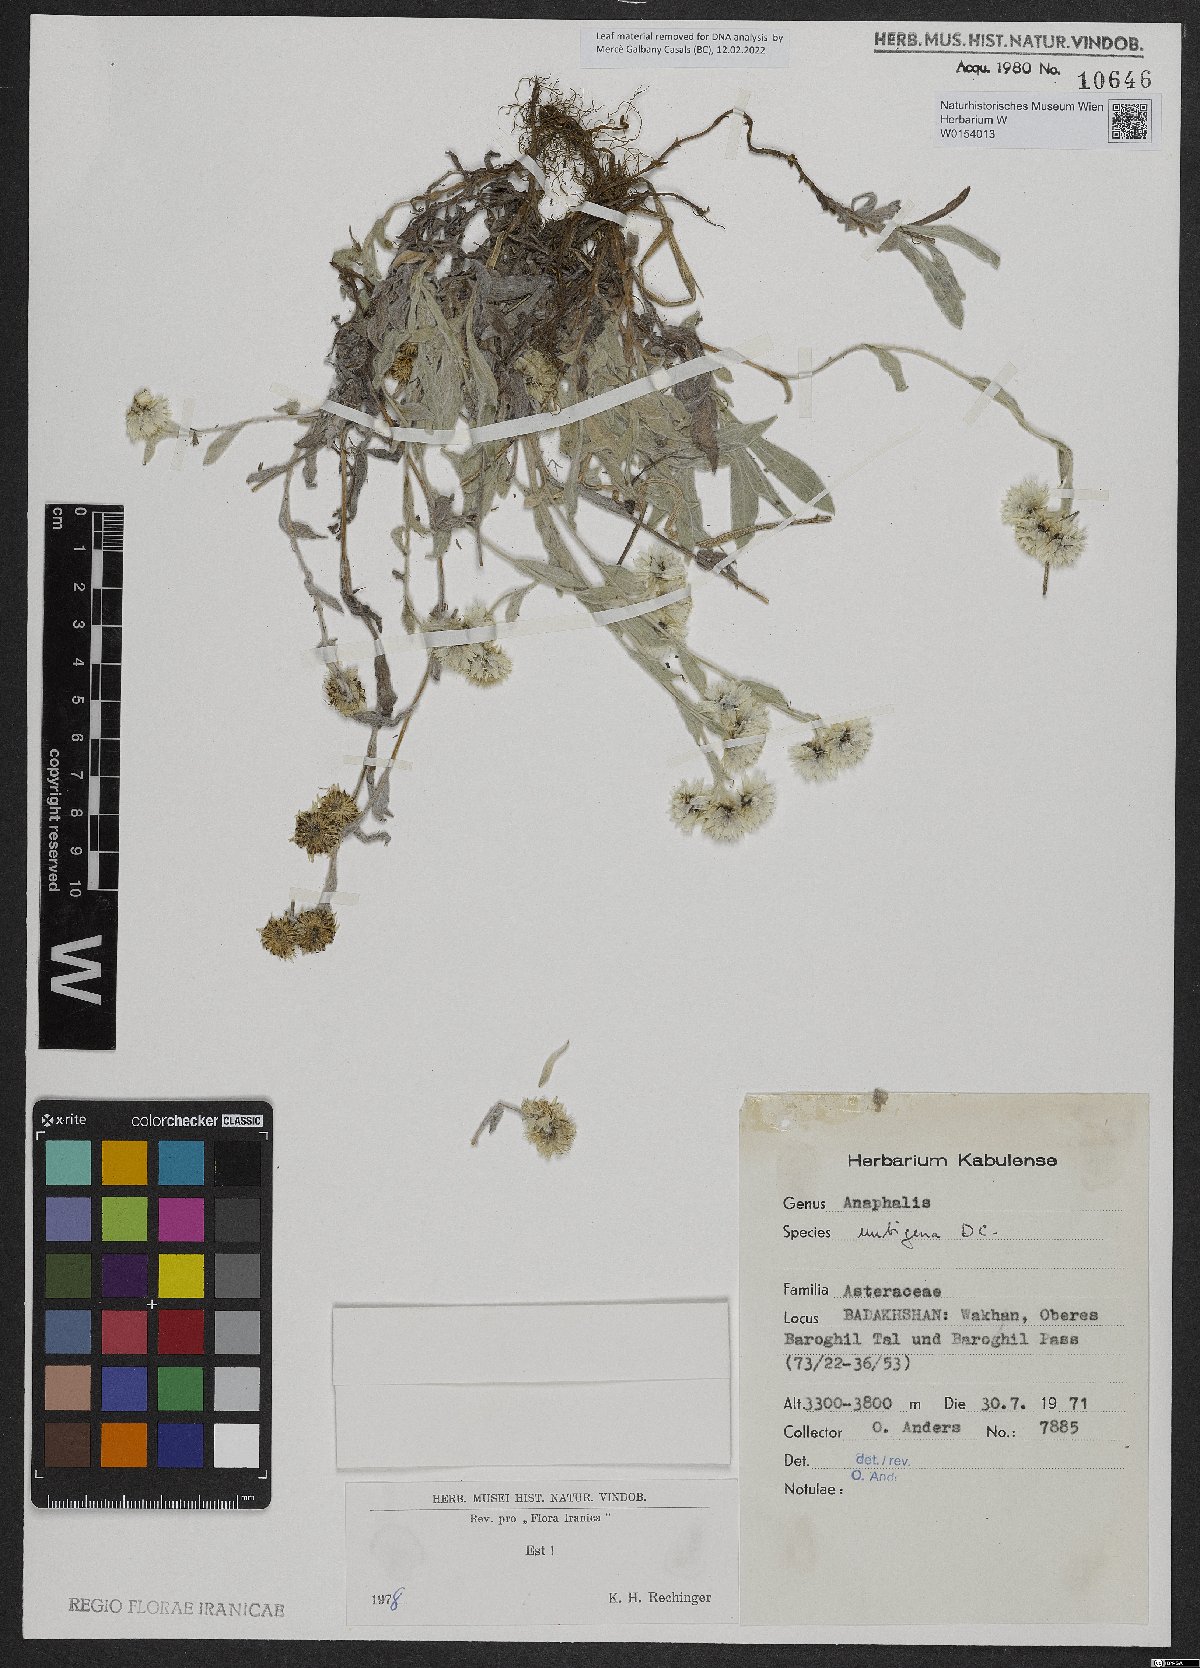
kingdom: Plantae
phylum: Tracheophyta
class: Magnoliopsida
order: Asterales
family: Asteraceae
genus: Anaphalis
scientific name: Anaphalis nepalensis
